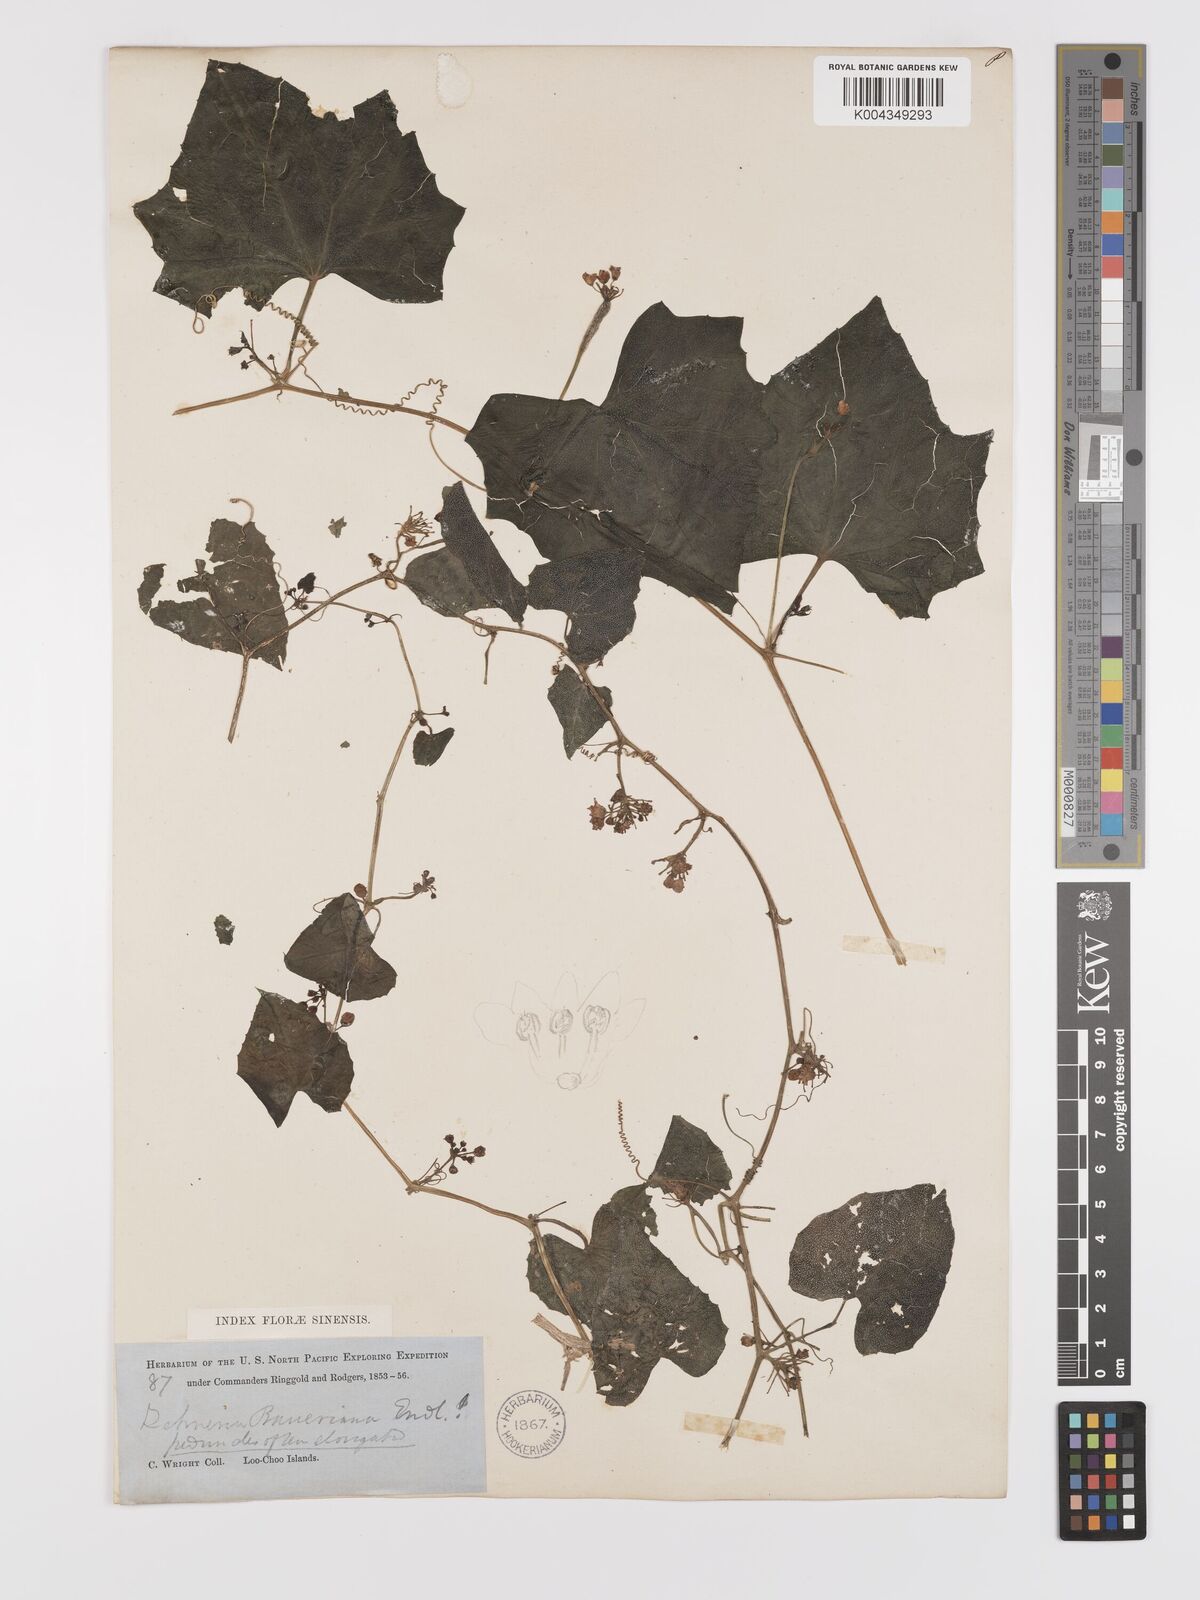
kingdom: Plantae
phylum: Tracheophyta
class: Magnoliopsida
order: Cucurbitales
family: Cucurbitaceae
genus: Zehneria
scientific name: Zehneria mucronata
